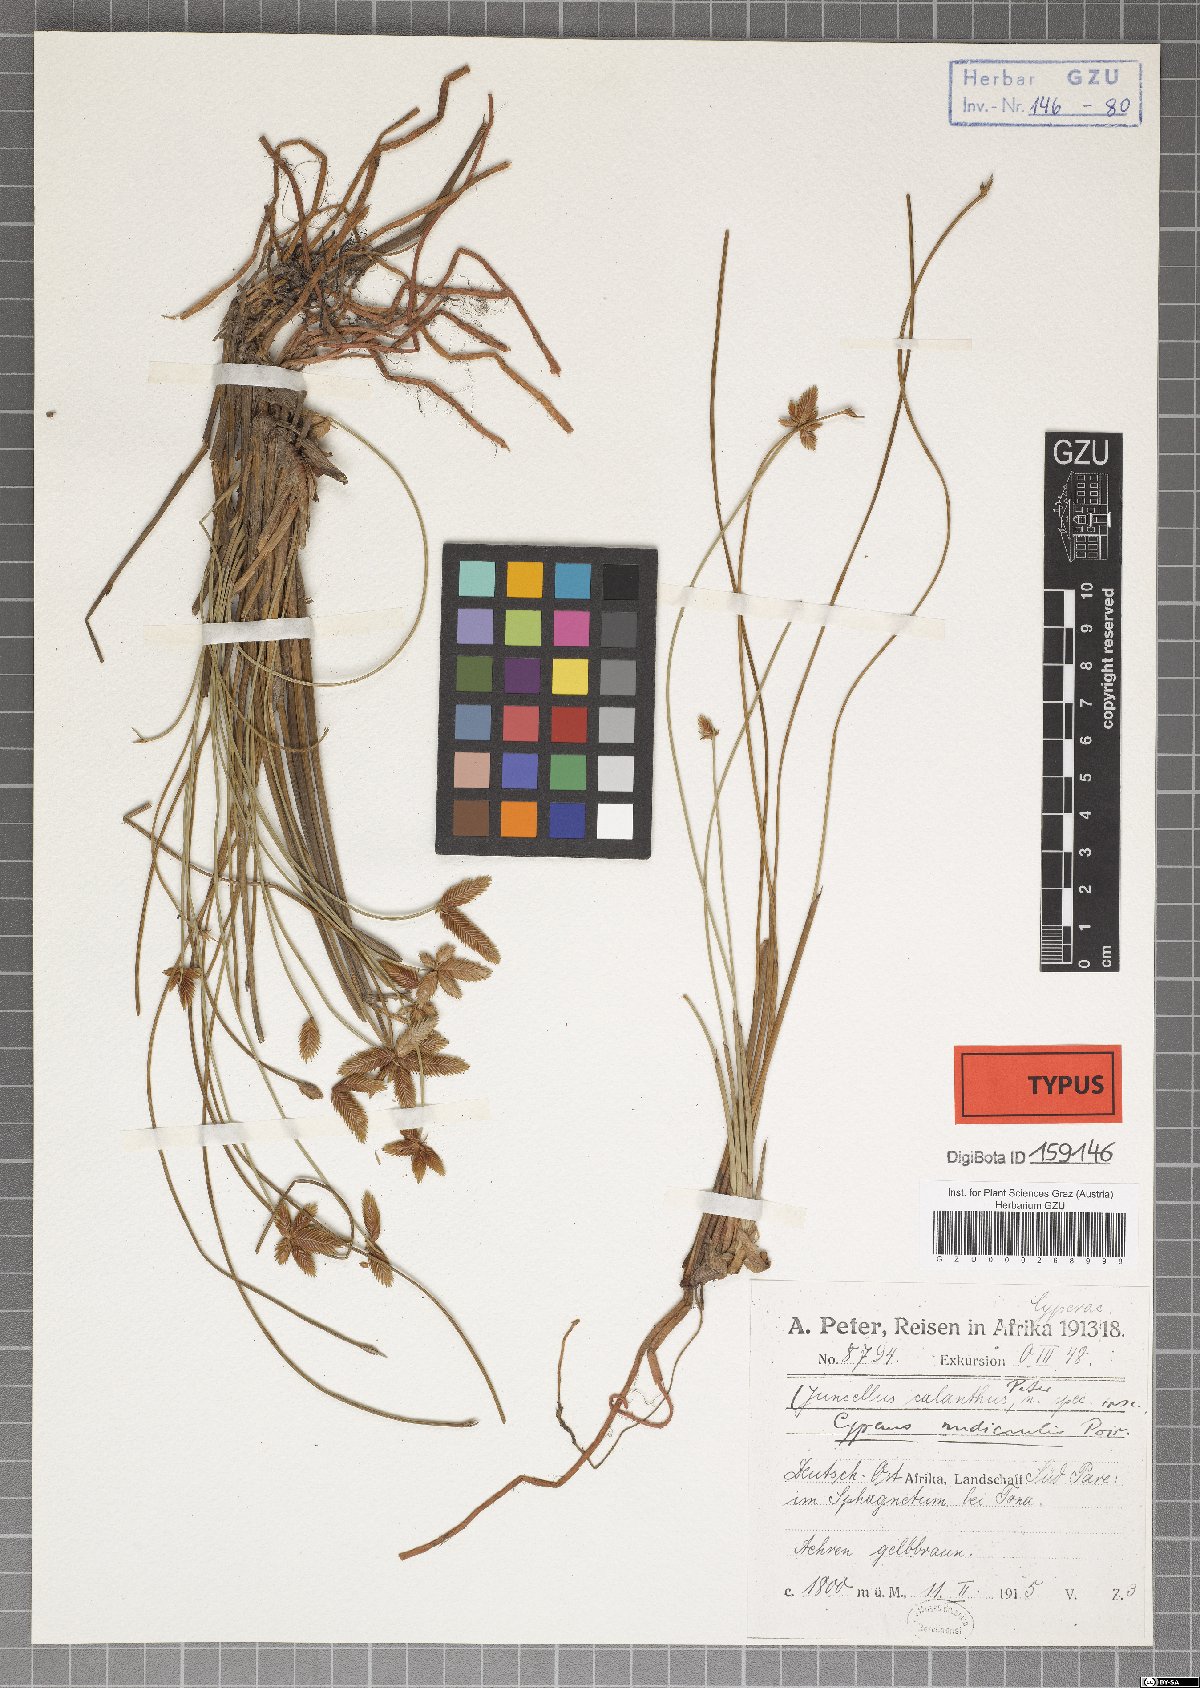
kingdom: Plantae
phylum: Tracheophyta
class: Liliopsida
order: Poales
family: Cyperaceae
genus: Cyperus
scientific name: Cyperus laevigatus
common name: Smooth flat sedge
